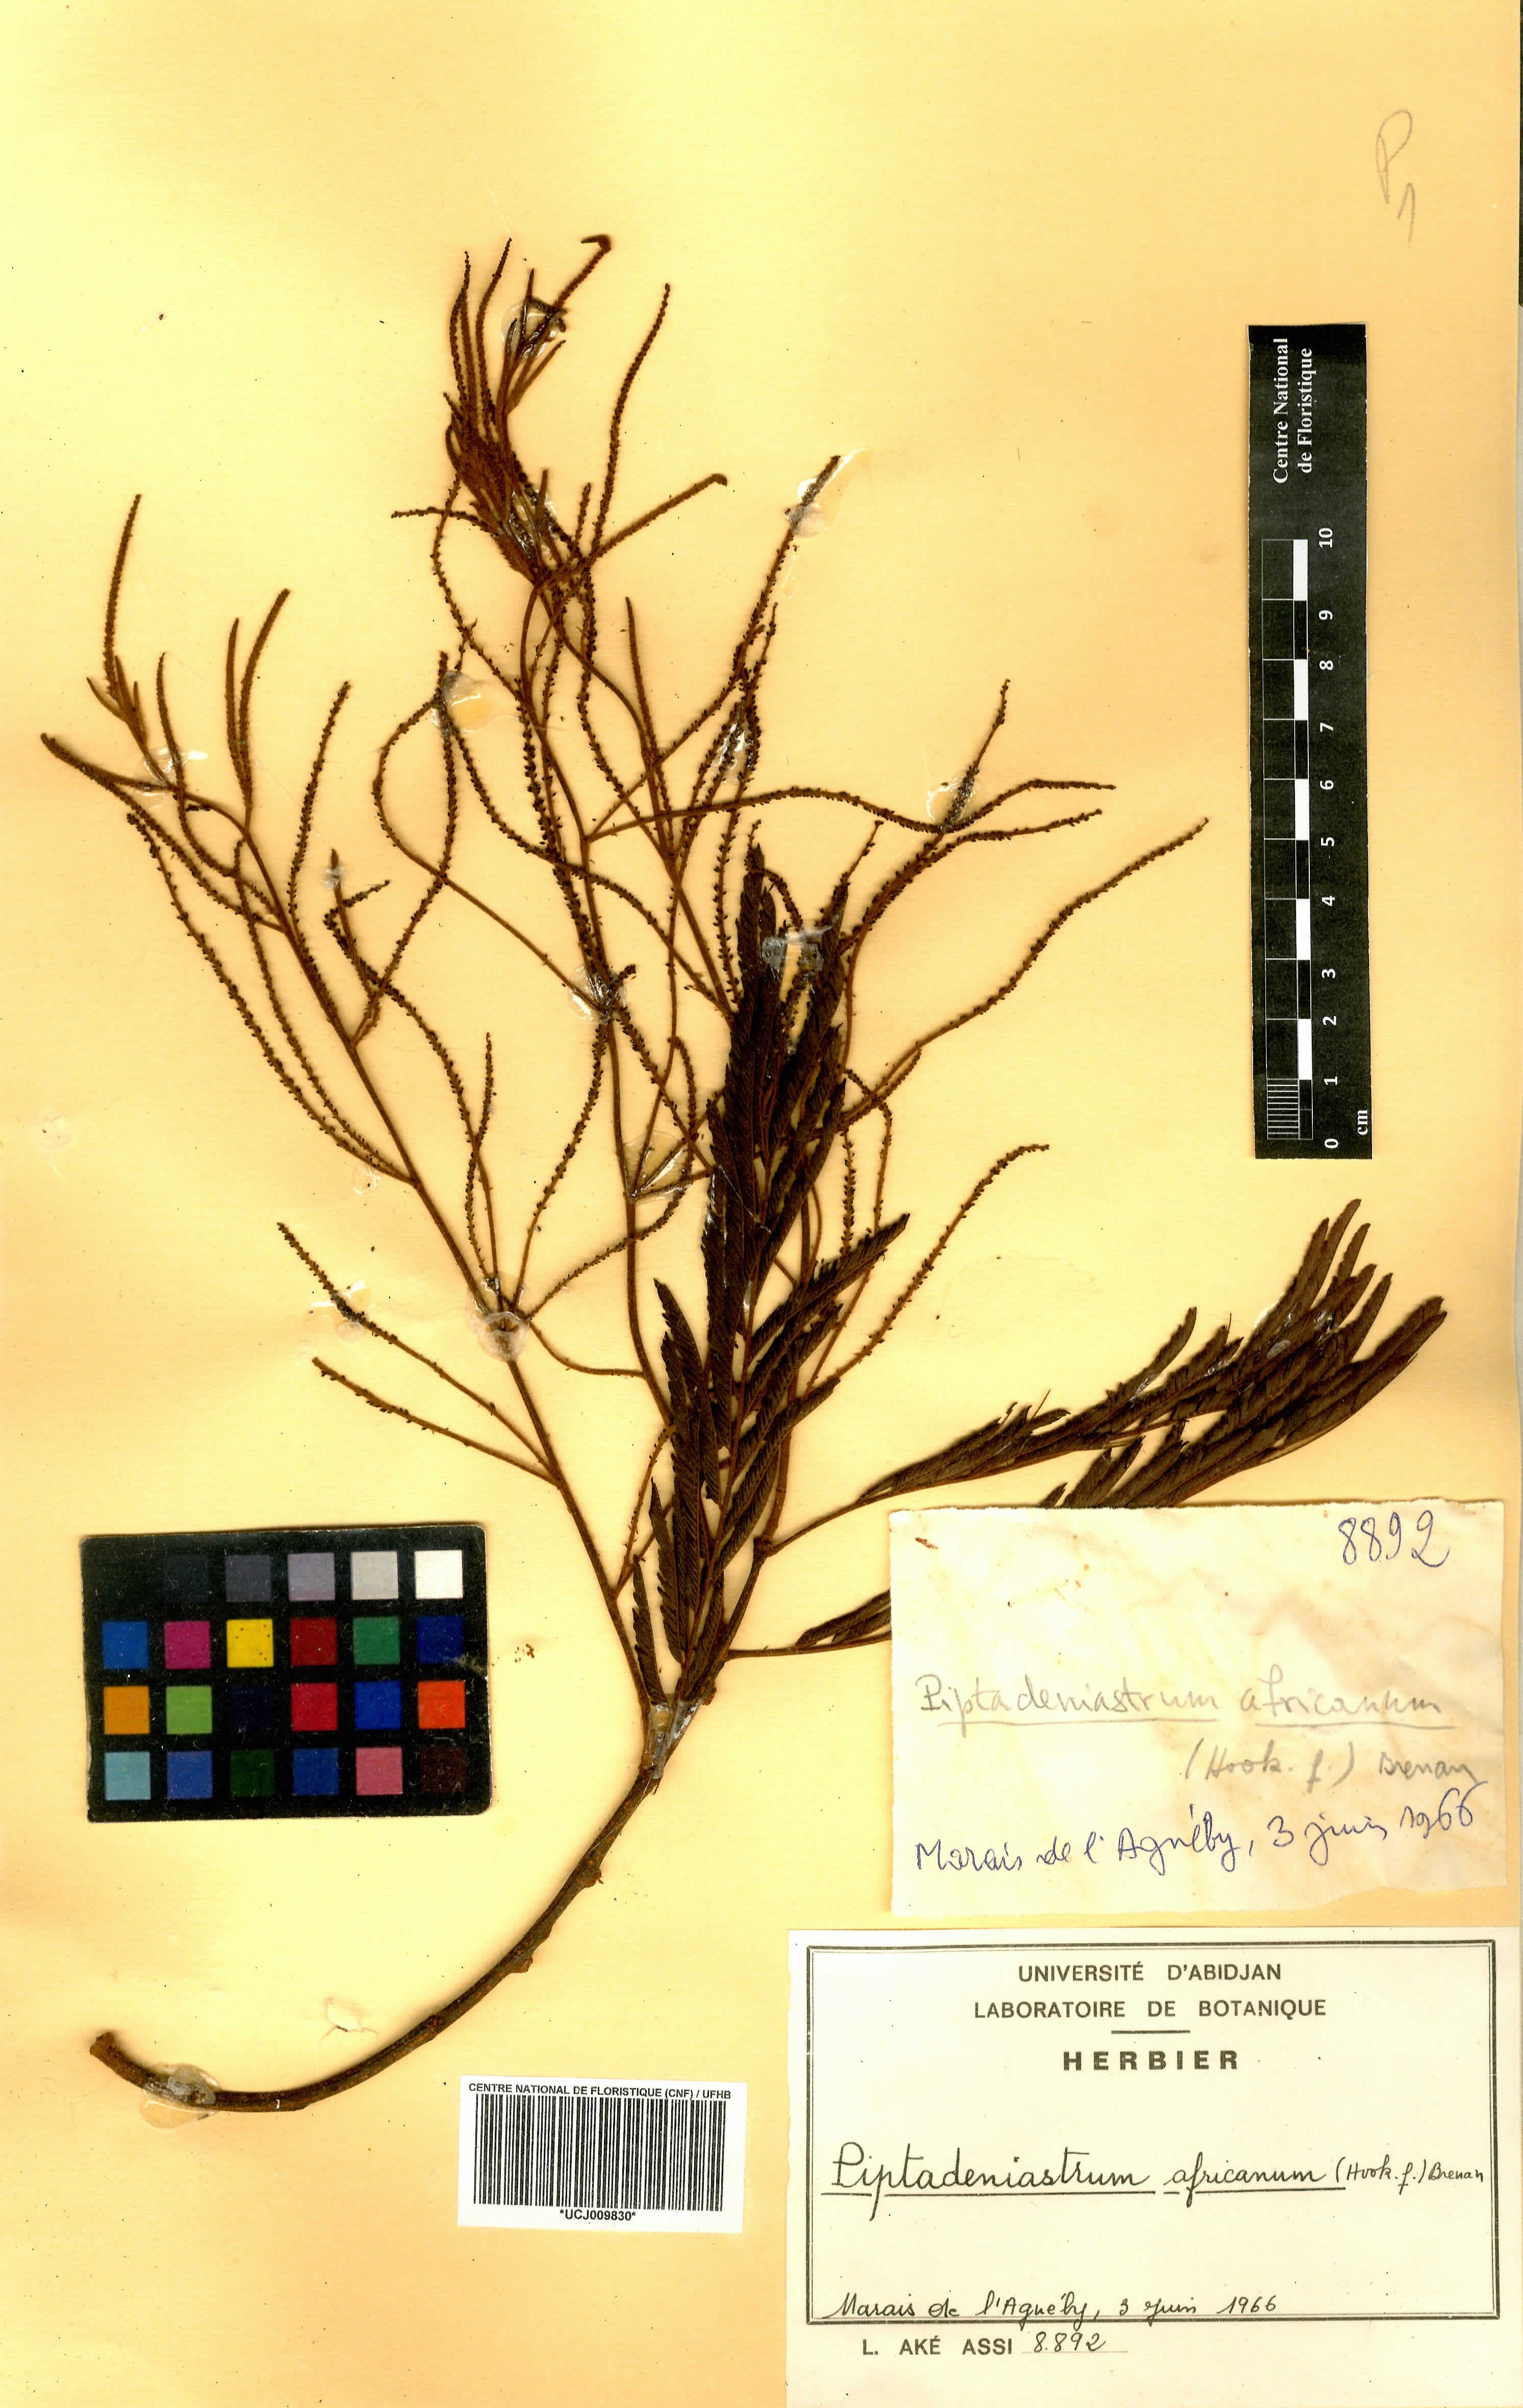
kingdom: Plantae
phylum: Tracheophyta
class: Magnoliopsida
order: Fabales
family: Fabaceae
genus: Piptadeniastrum
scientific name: Piptadeniastrum africanum
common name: African greenheart
